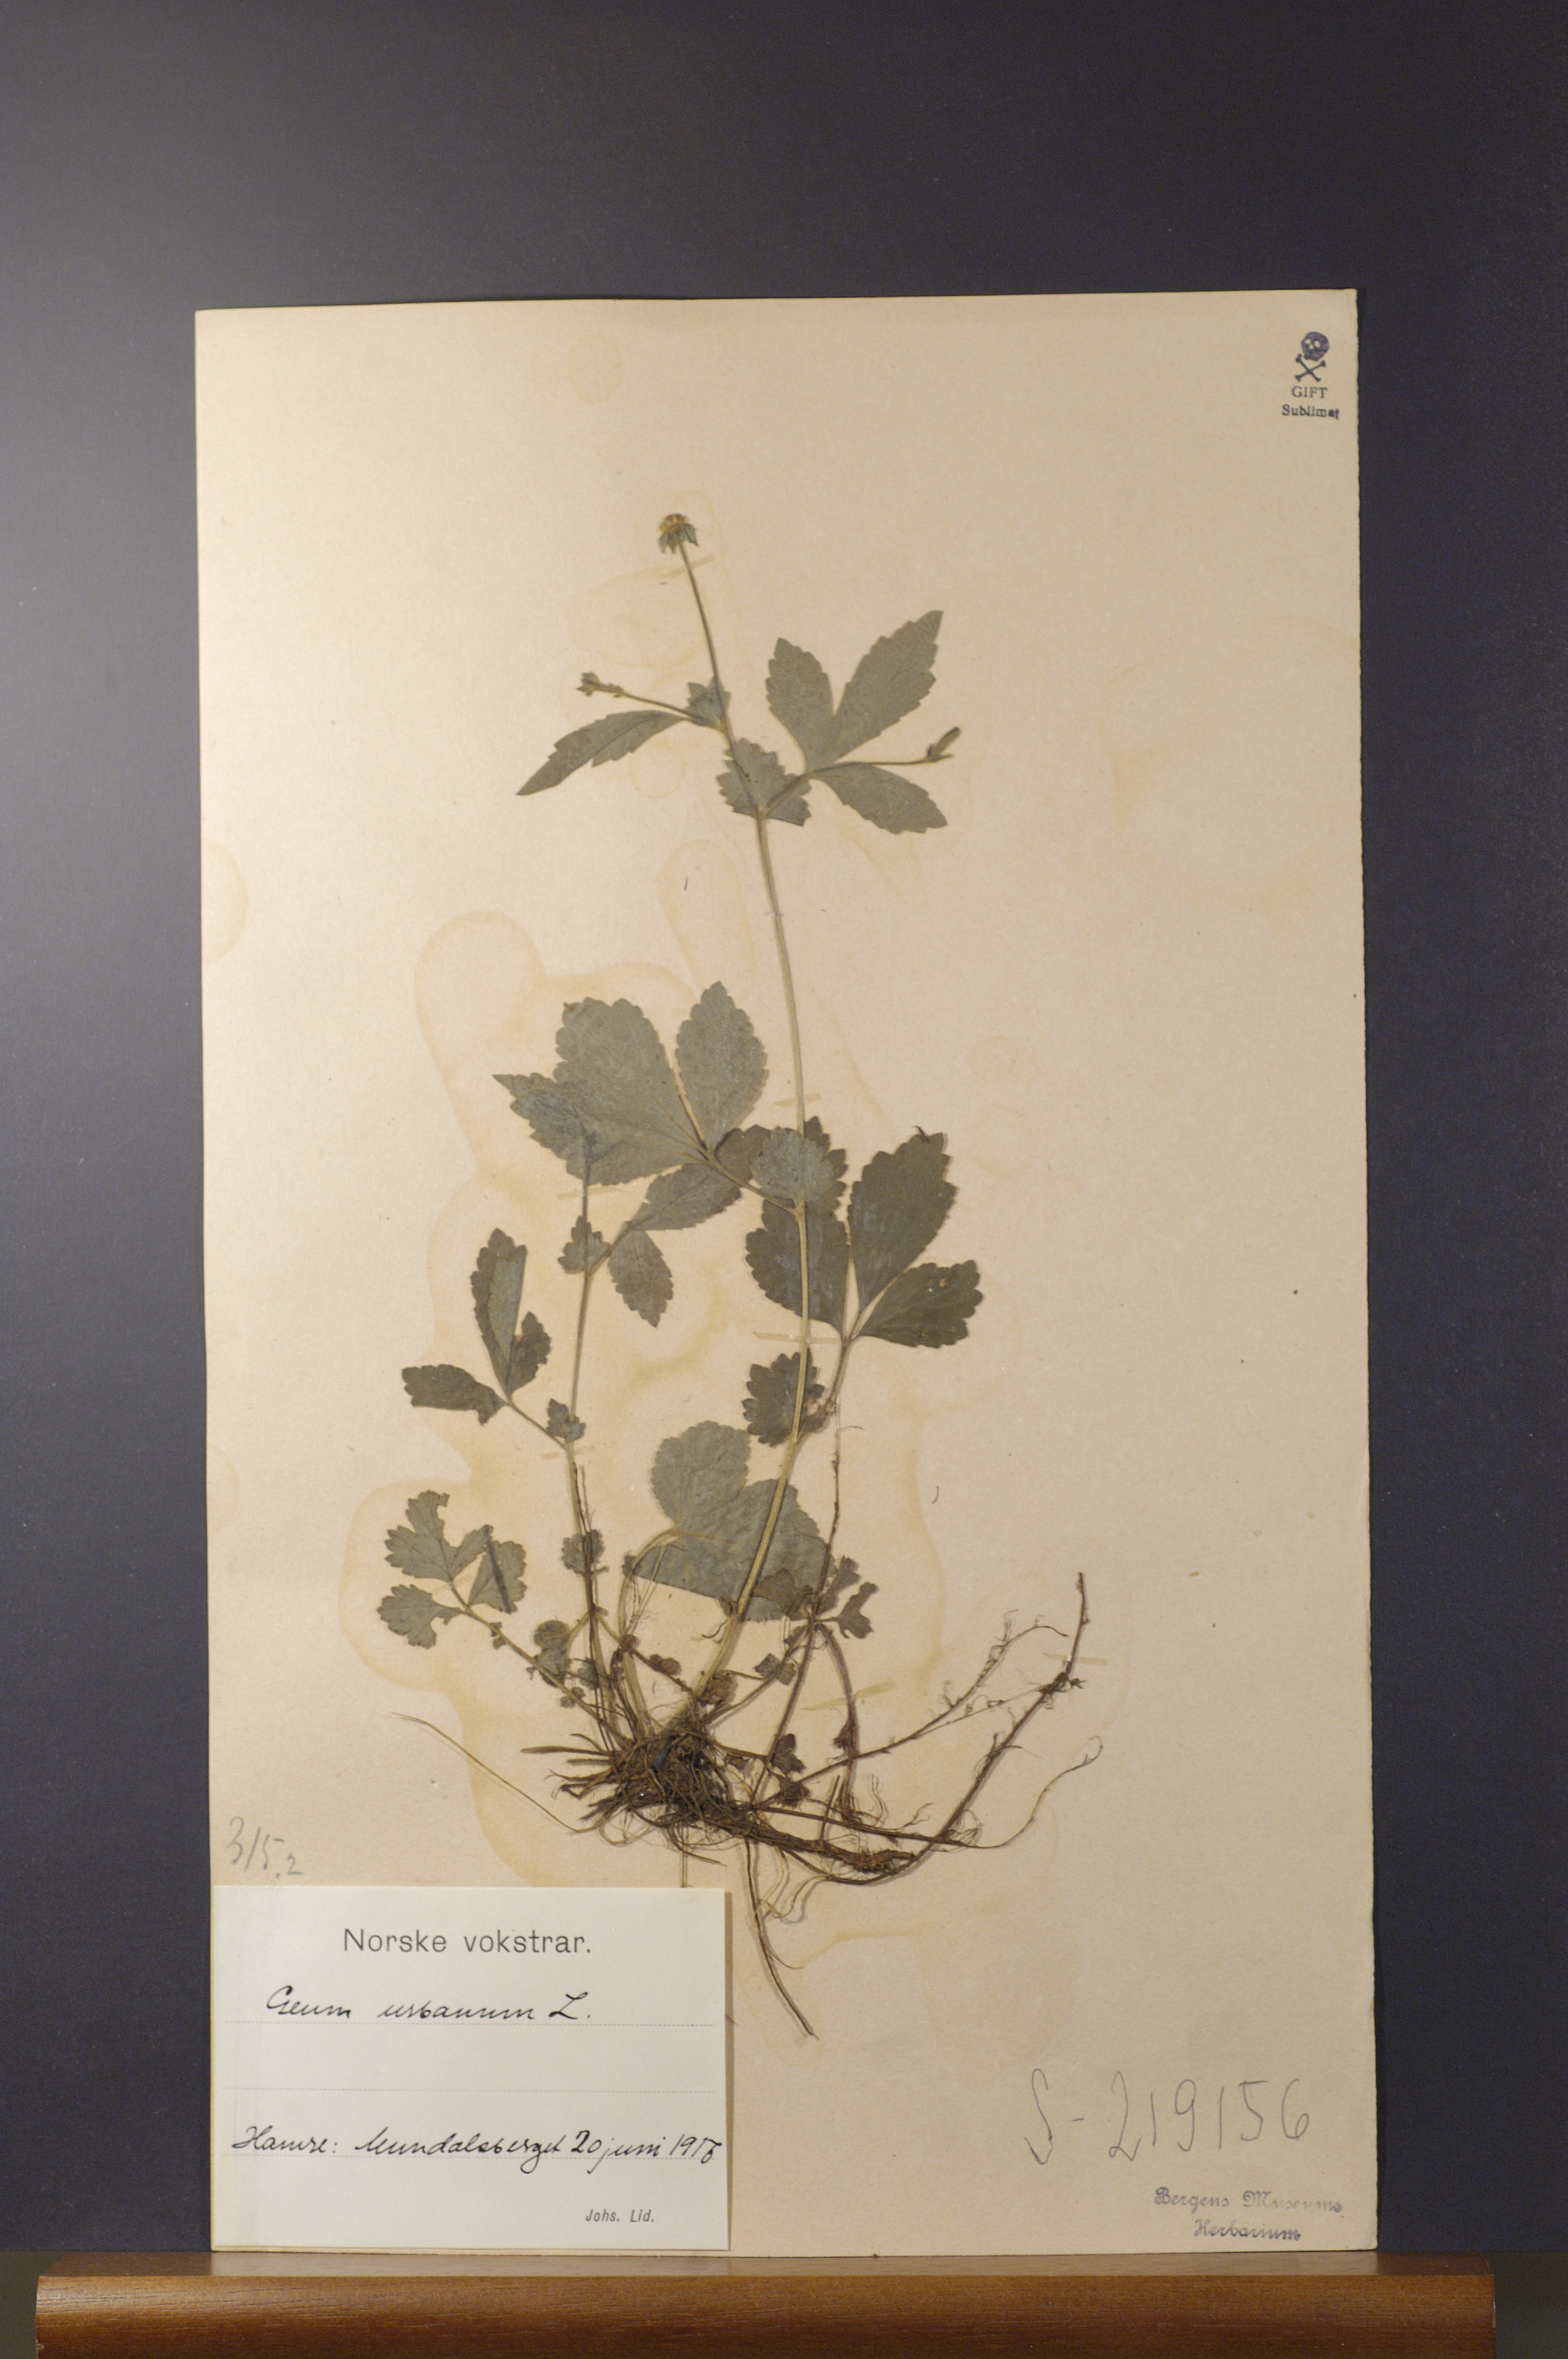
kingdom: Plantae
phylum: Tracheophyta
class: Magnoliopsida
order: Rosales
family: Rosaceae
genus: Geum
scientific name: Geum urbanum
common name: Wood avens
